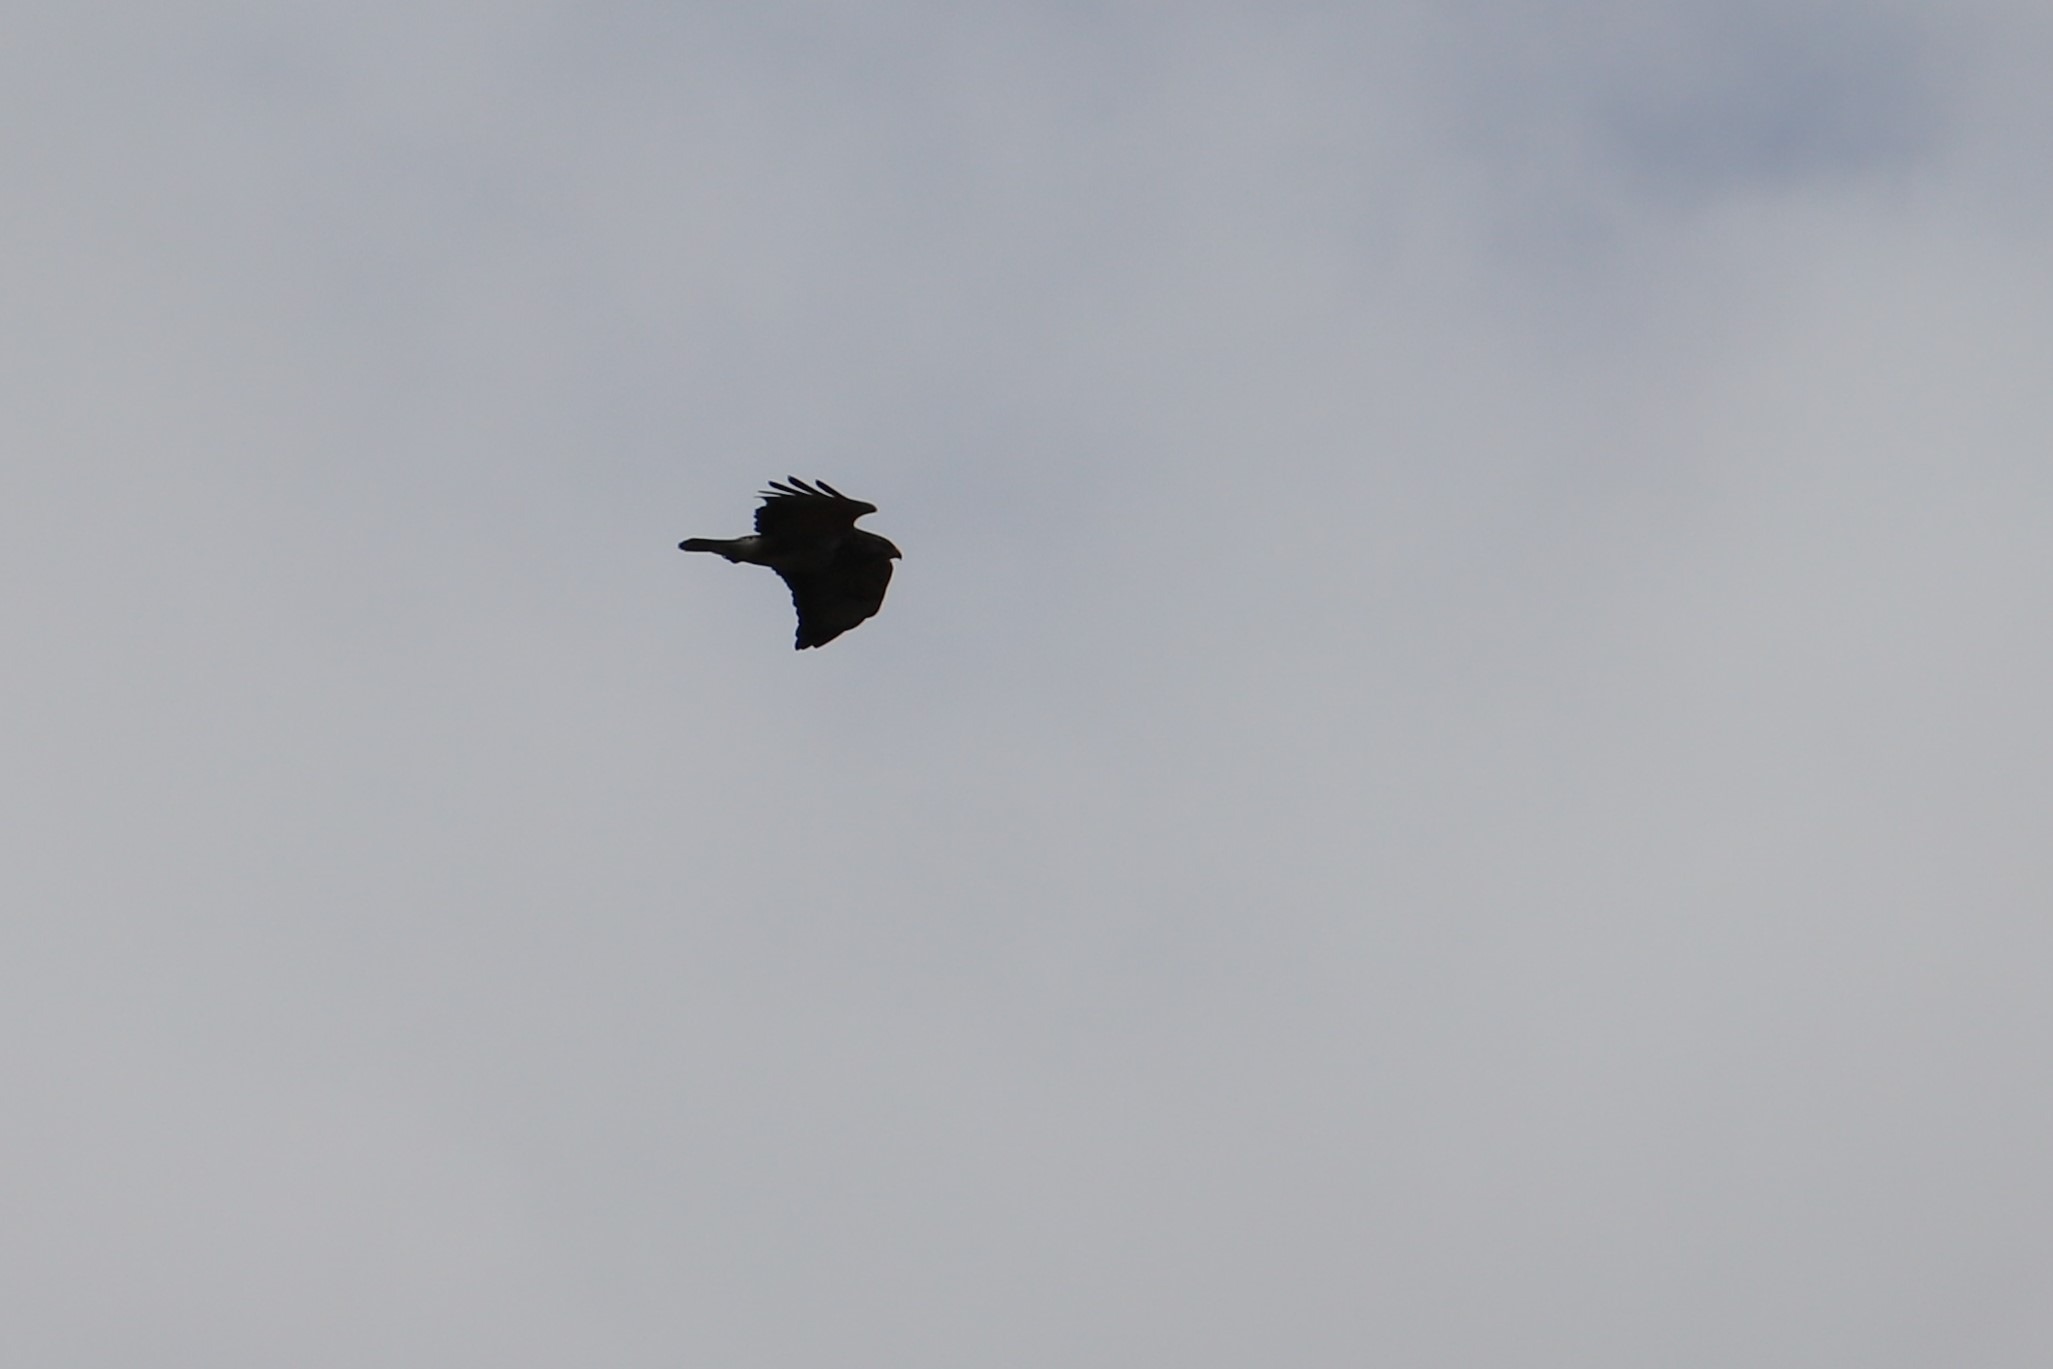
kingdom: Animalia
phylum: Chordata
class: Aves
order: Accipitriformes
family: Accipitridae
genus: Buteo
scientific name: Buteo buteo
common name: Musvåge
